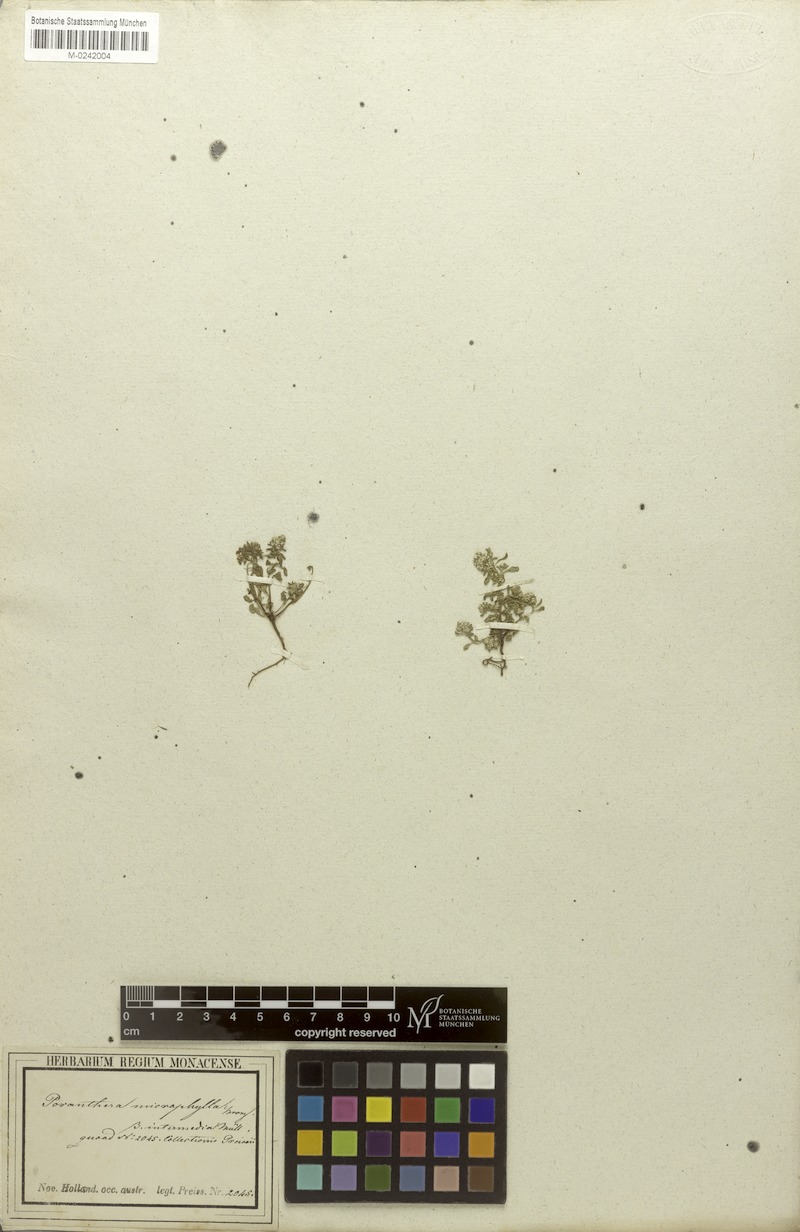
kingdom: Plantae
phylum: Tracheophyta
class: Magnoliopsida
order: Malpighiales
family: Phyllanthaceae
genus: Poranthera
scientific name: Poranthera florosa
